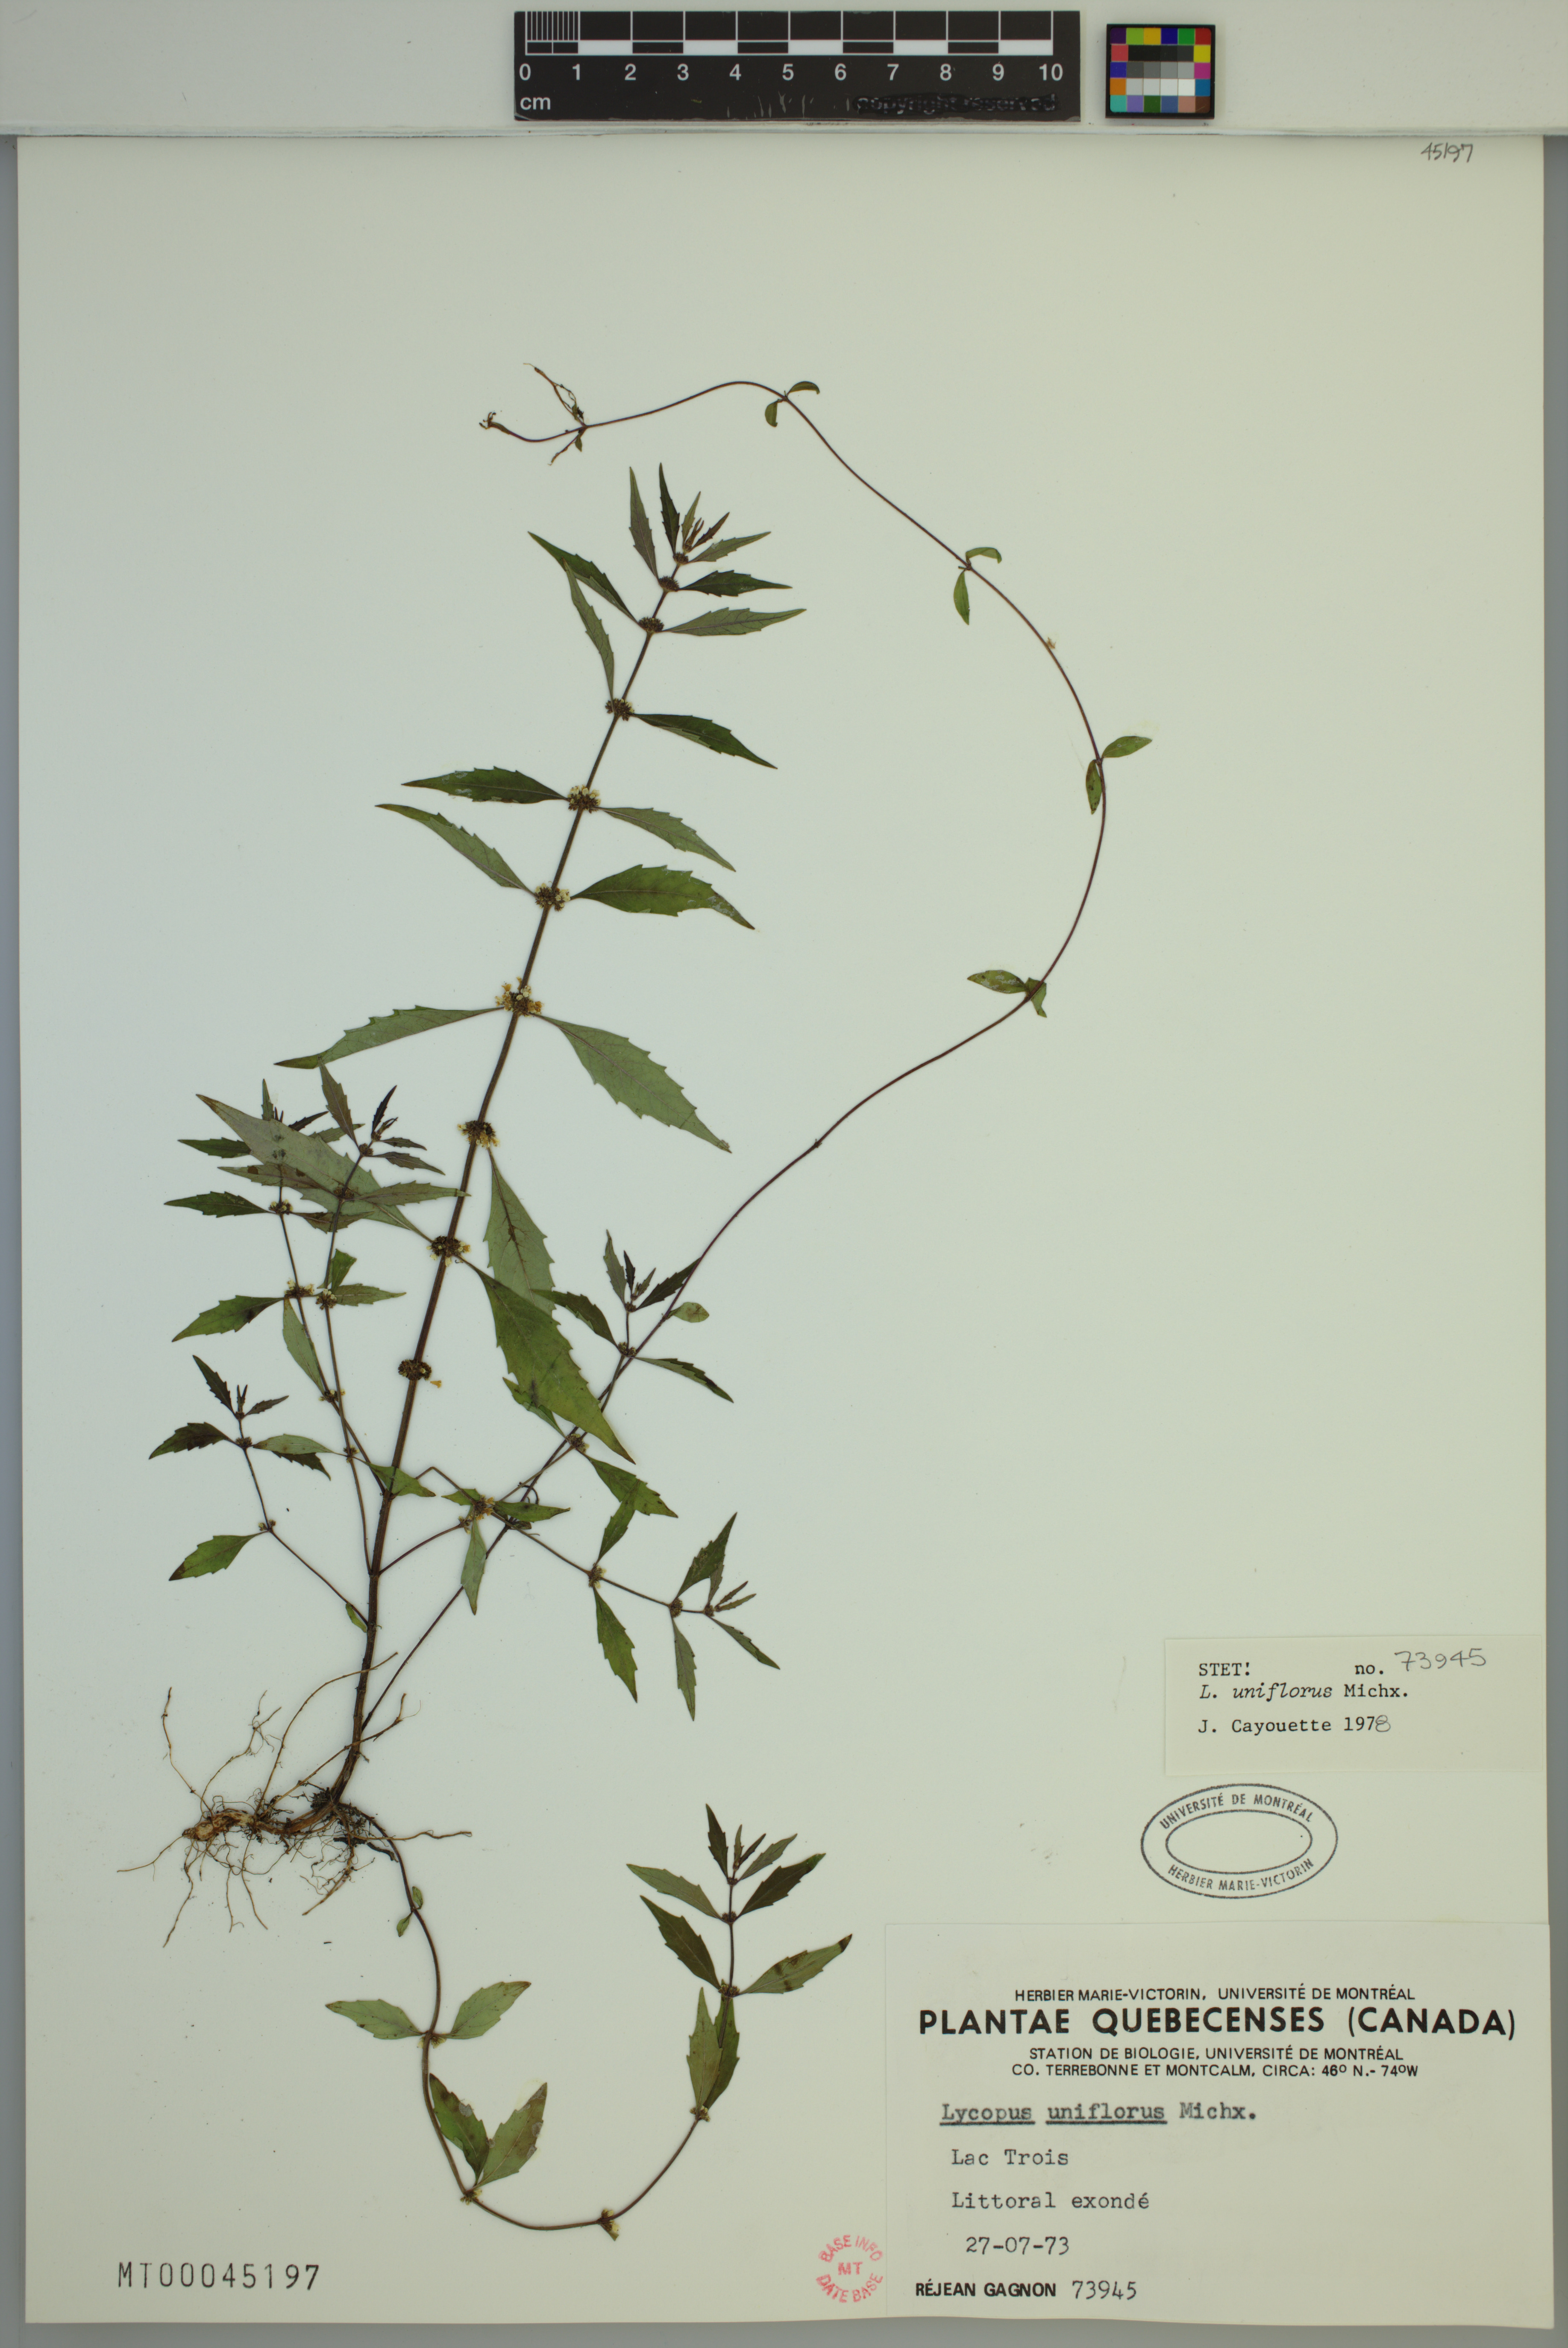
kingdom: Plantae
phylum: Tracheophyta
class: Magnoliopsida
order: Lamiales
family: Lamiaceae
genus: Lycopus
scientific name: Lycopus uniflorus
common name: Northern bugleweed
